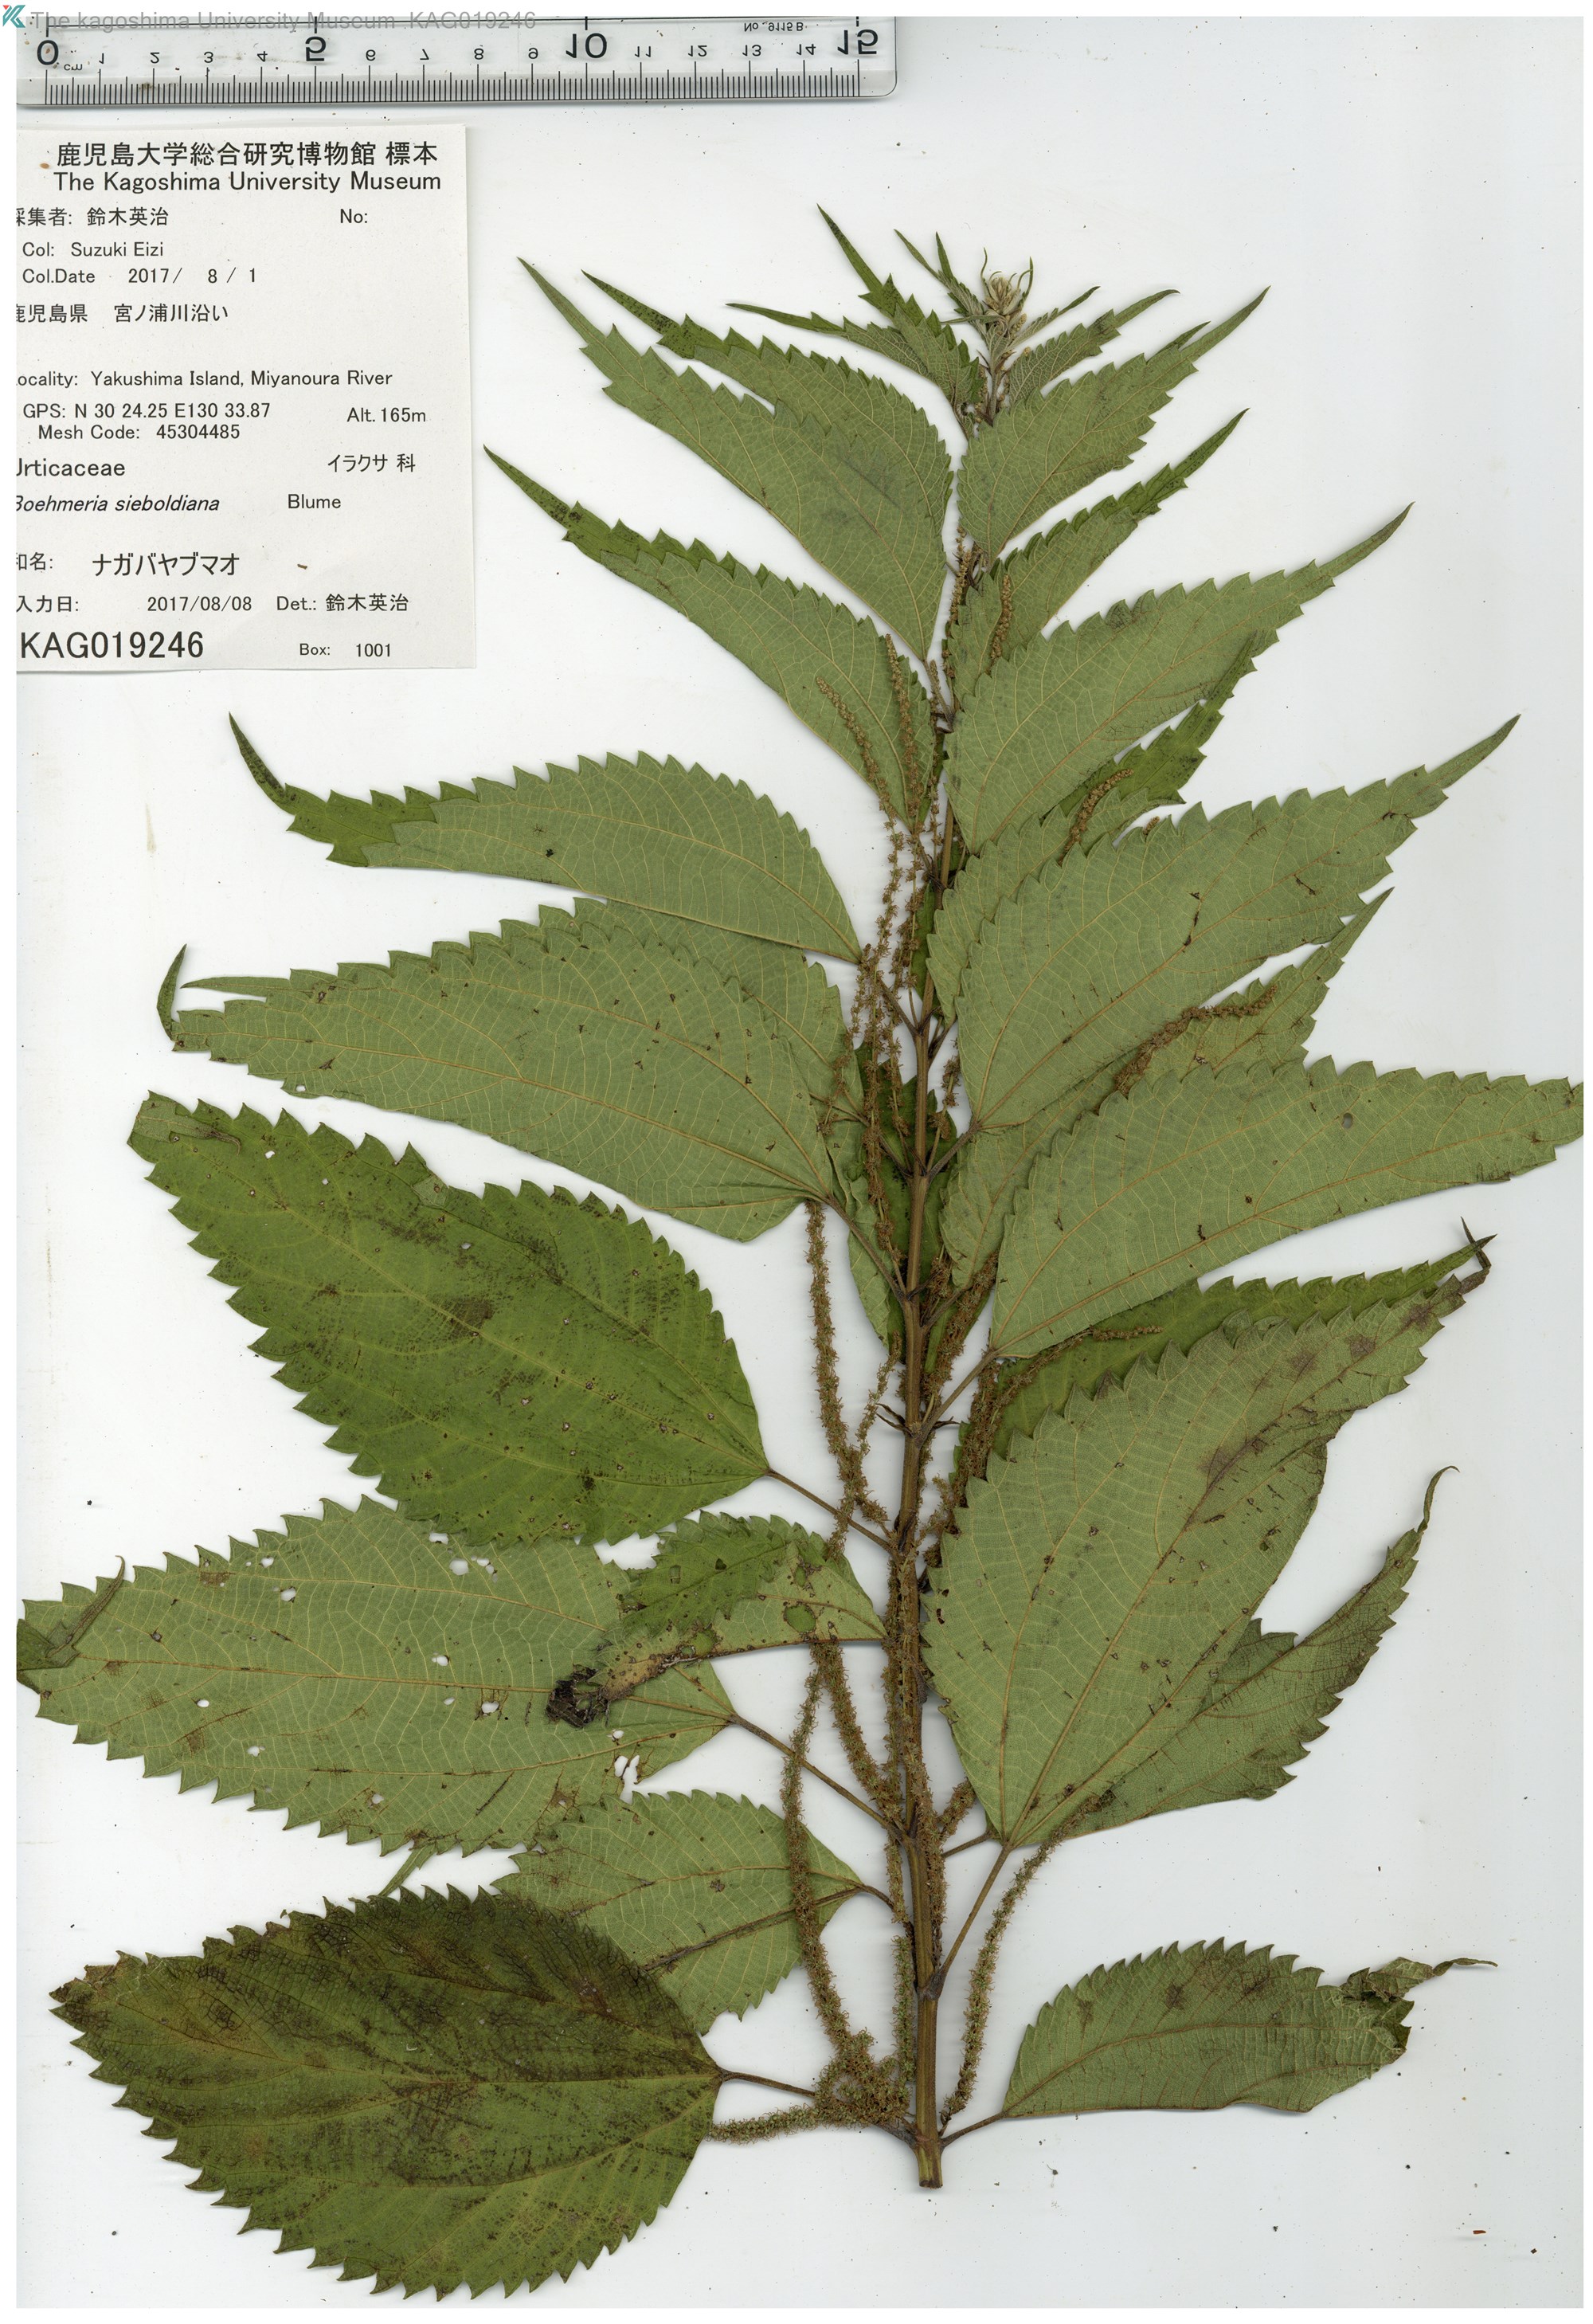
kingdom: Plantae
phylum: Tracheophyta
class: Magnoliopsida
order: Rosales
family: Urticaceae
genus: Boehmeria
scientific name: Boehmeria sieboldiana
